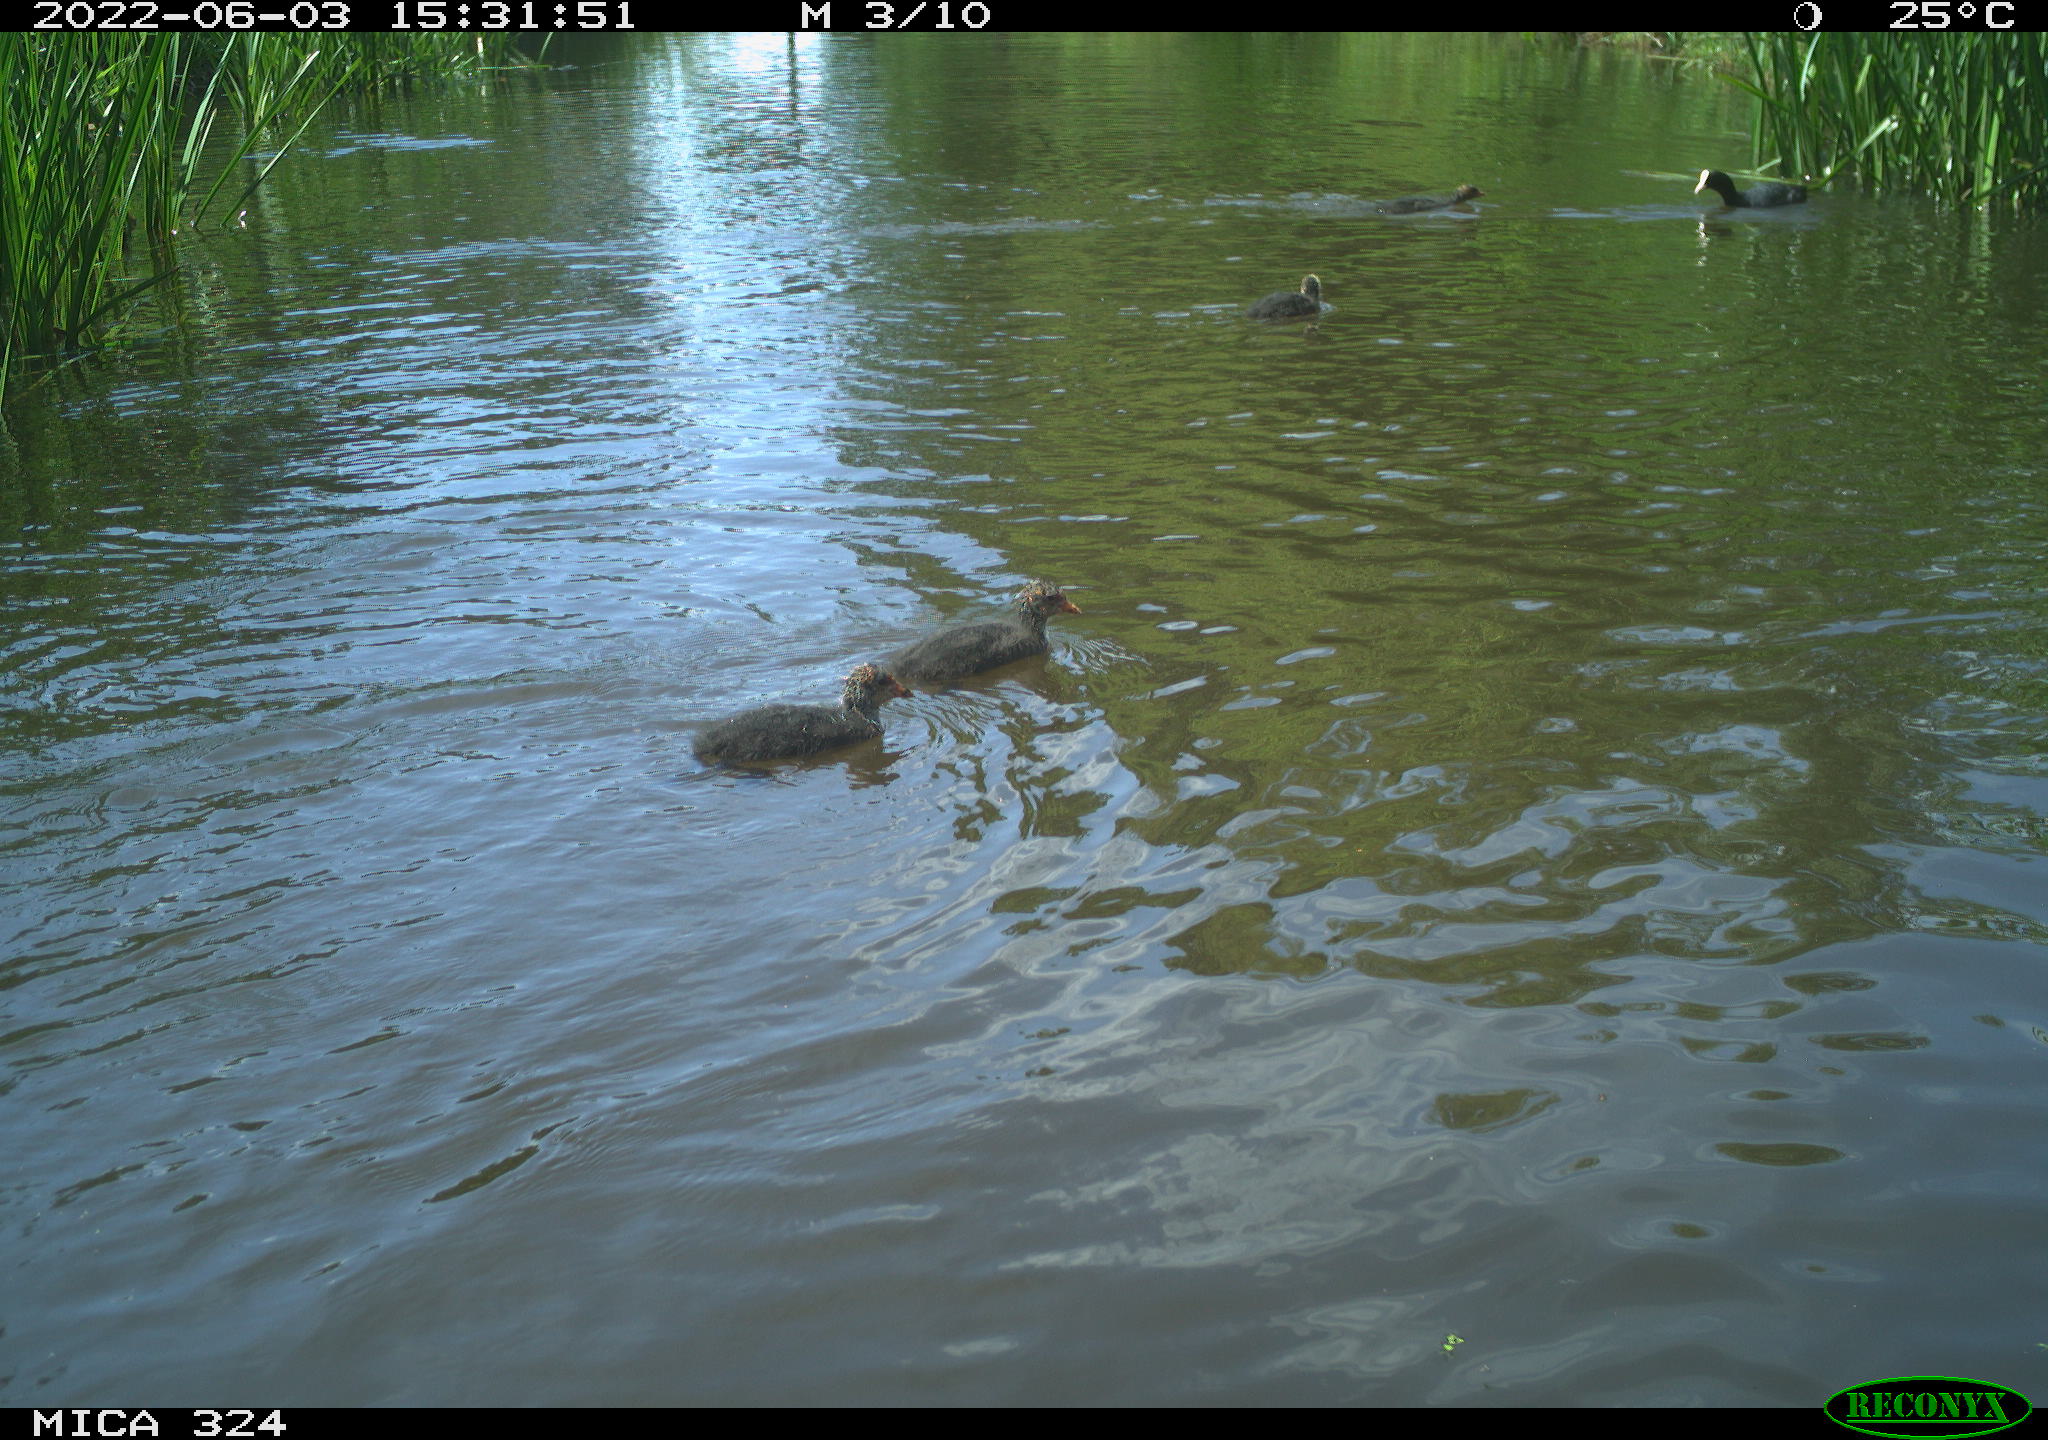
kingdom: Animalia
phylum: Chordata
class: Aves
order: Gruiformes
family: Rallidae
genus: Fulica
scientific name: Fulica atra
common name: Eurasian coot
